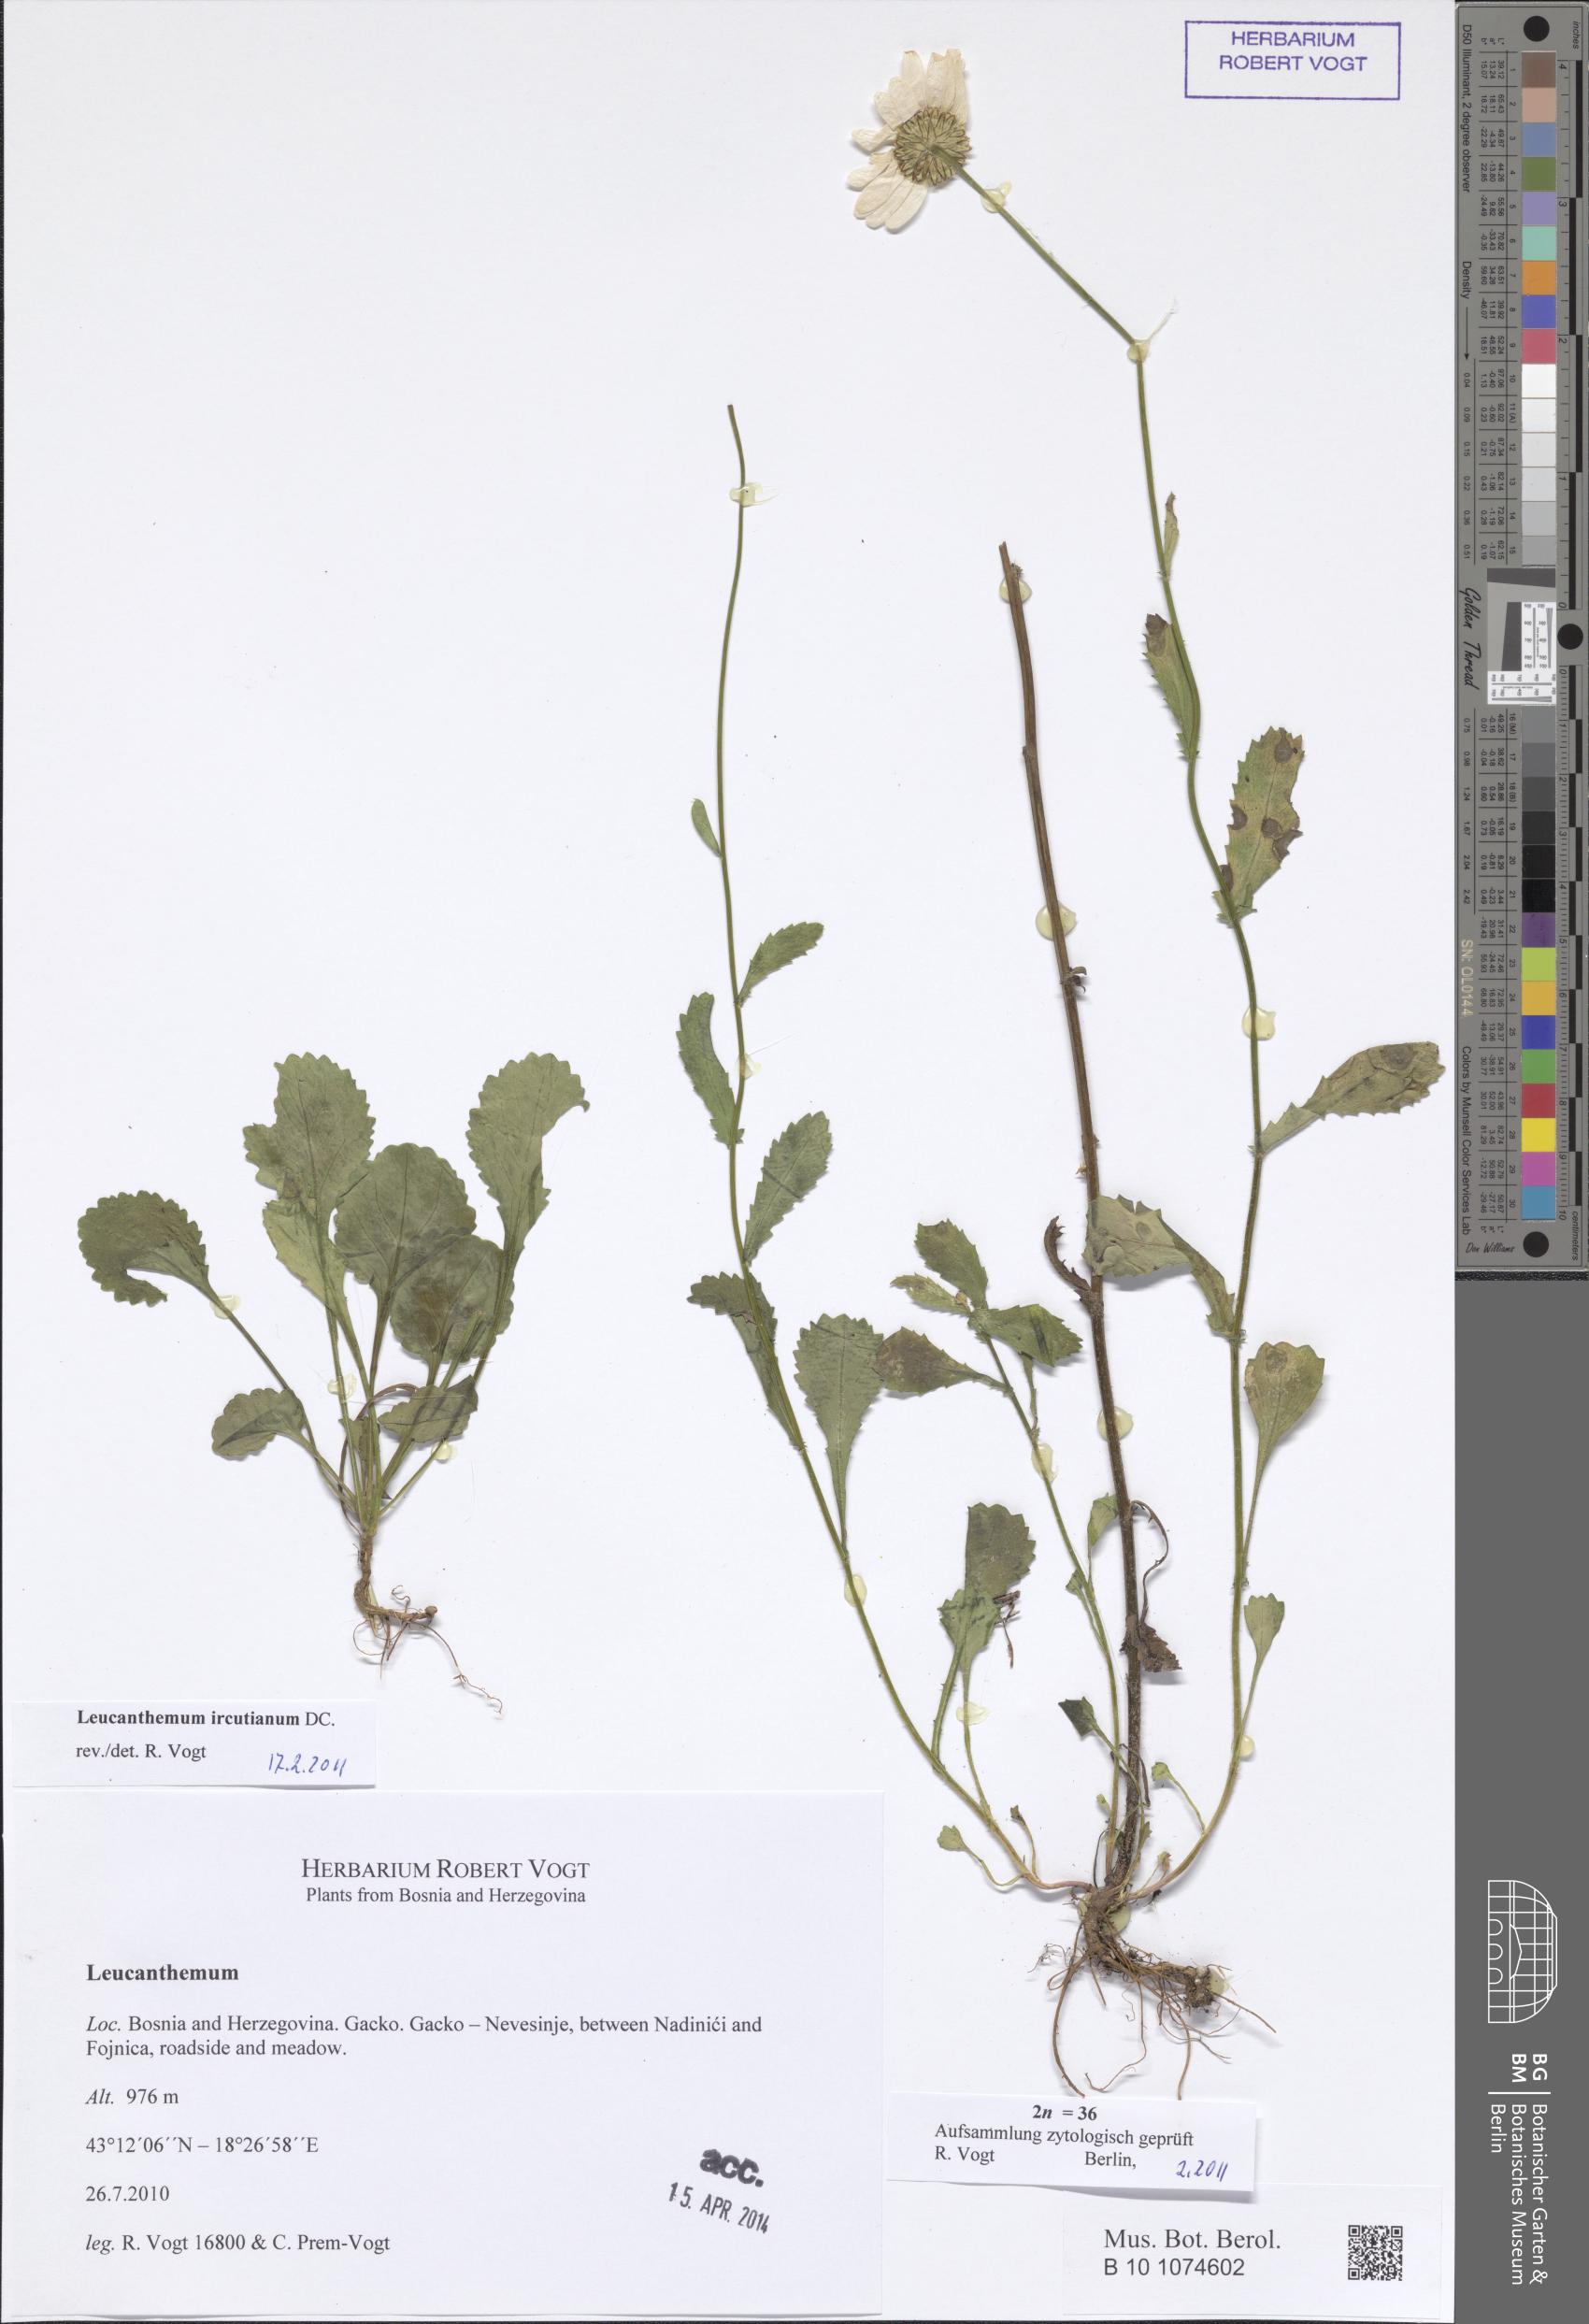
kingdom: Plantae
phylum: Tracheophyta
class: Magnoliopsida
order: Asterales
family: Asteraceae
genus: Leucanthemum
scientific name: Leucanthemum ircutianum
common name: Daisy
